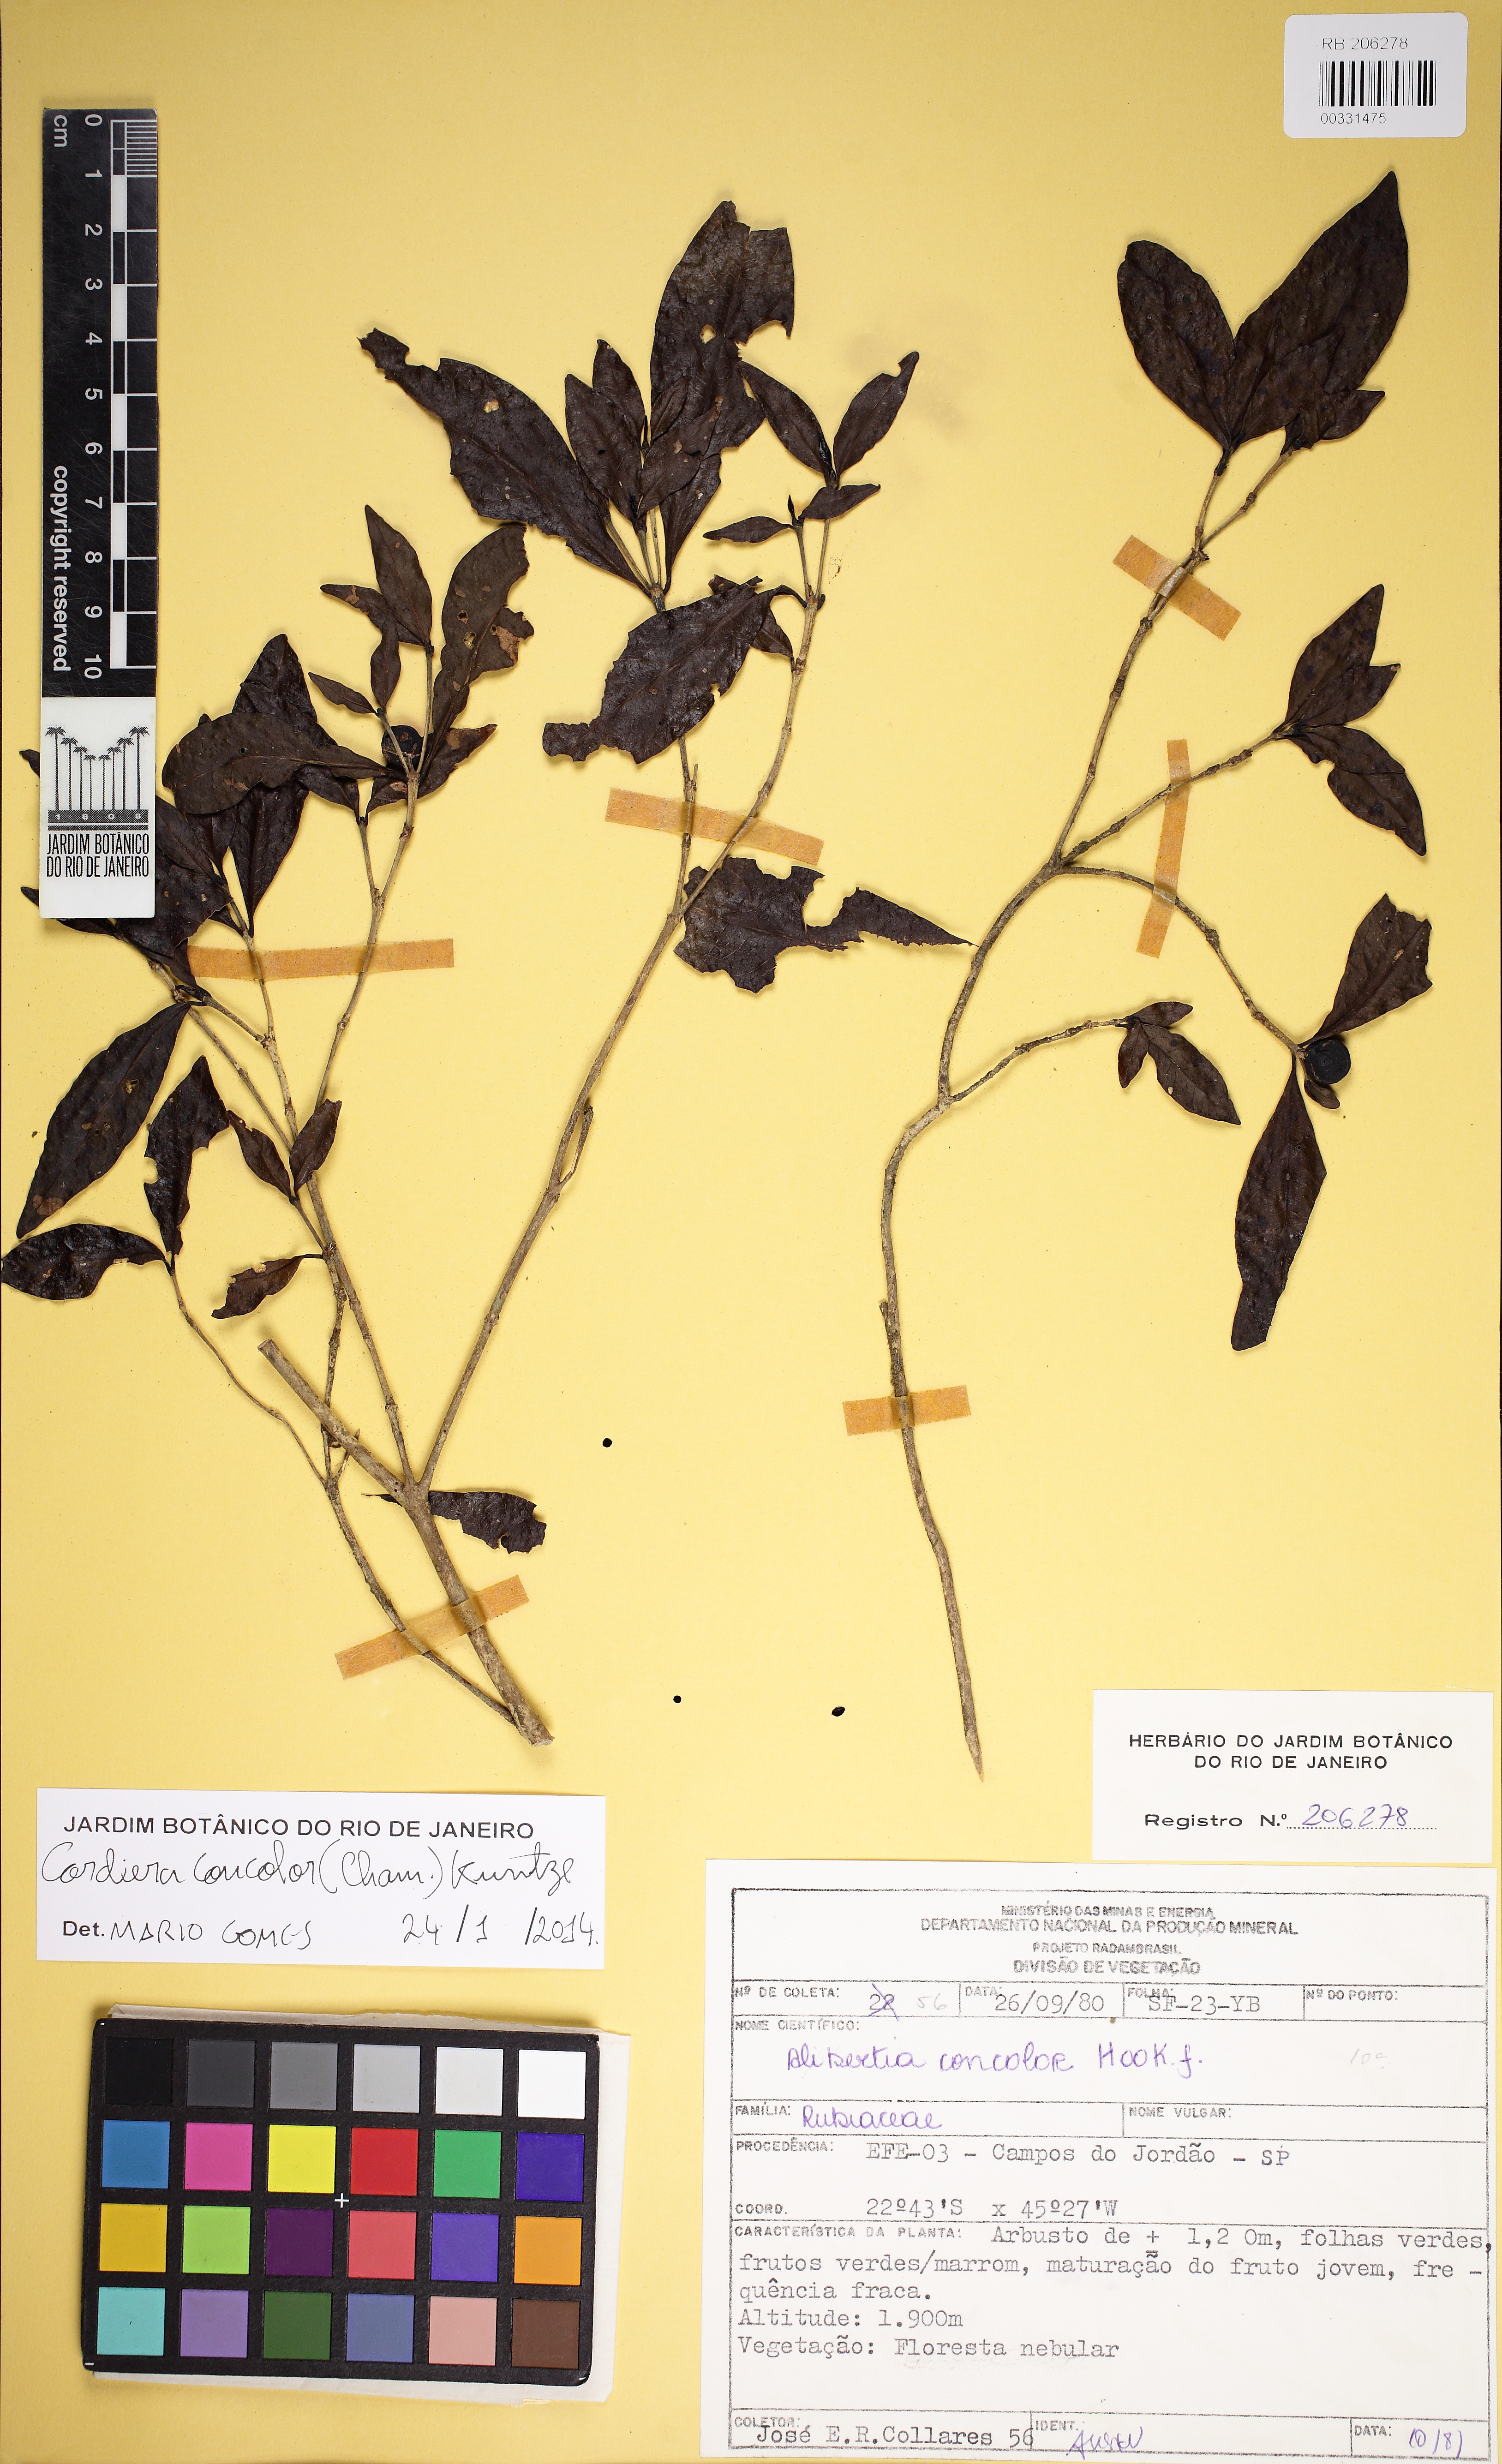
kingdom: Plantae
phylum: Tracheophyta
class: Magnoliopsida
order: Gentianales
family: Rubiaceae
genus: Cordiera
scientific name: Cordiera concolor
